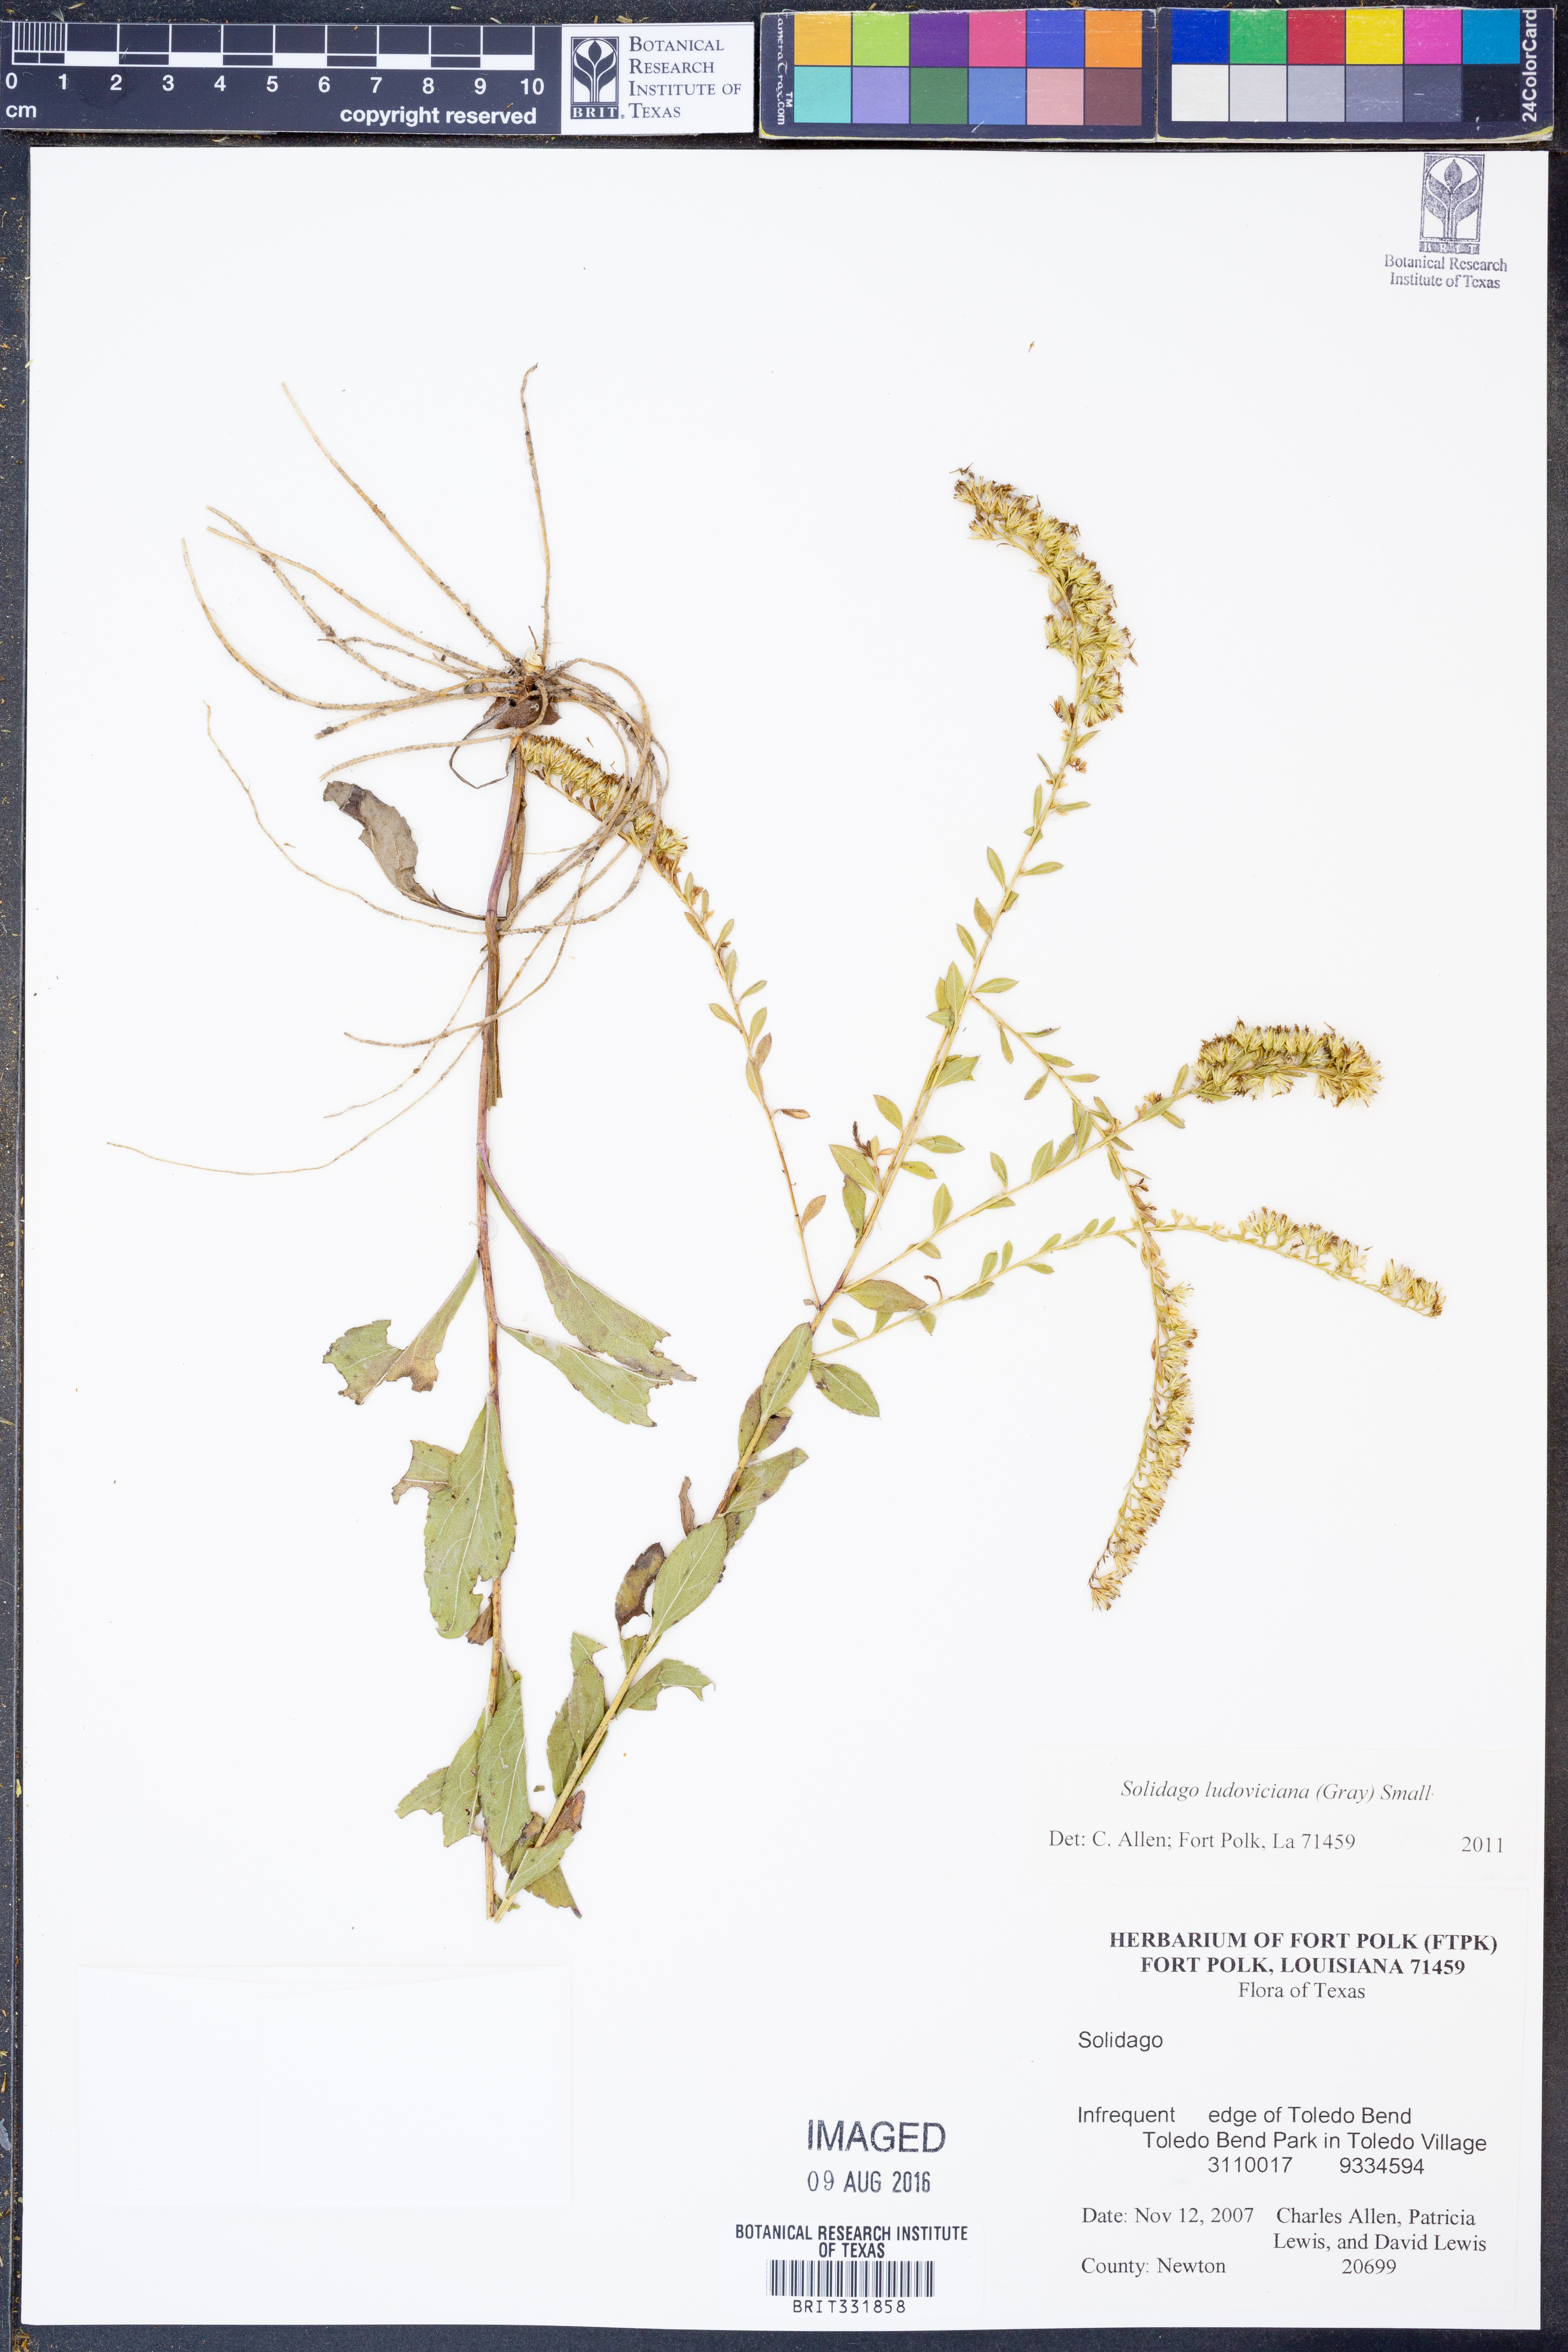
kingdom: Plantae
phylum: Tracheophyta
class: Magnoliopsida
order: Asterales
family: Asteraceae
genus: Solidago
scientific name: Solidago ludoviciana
